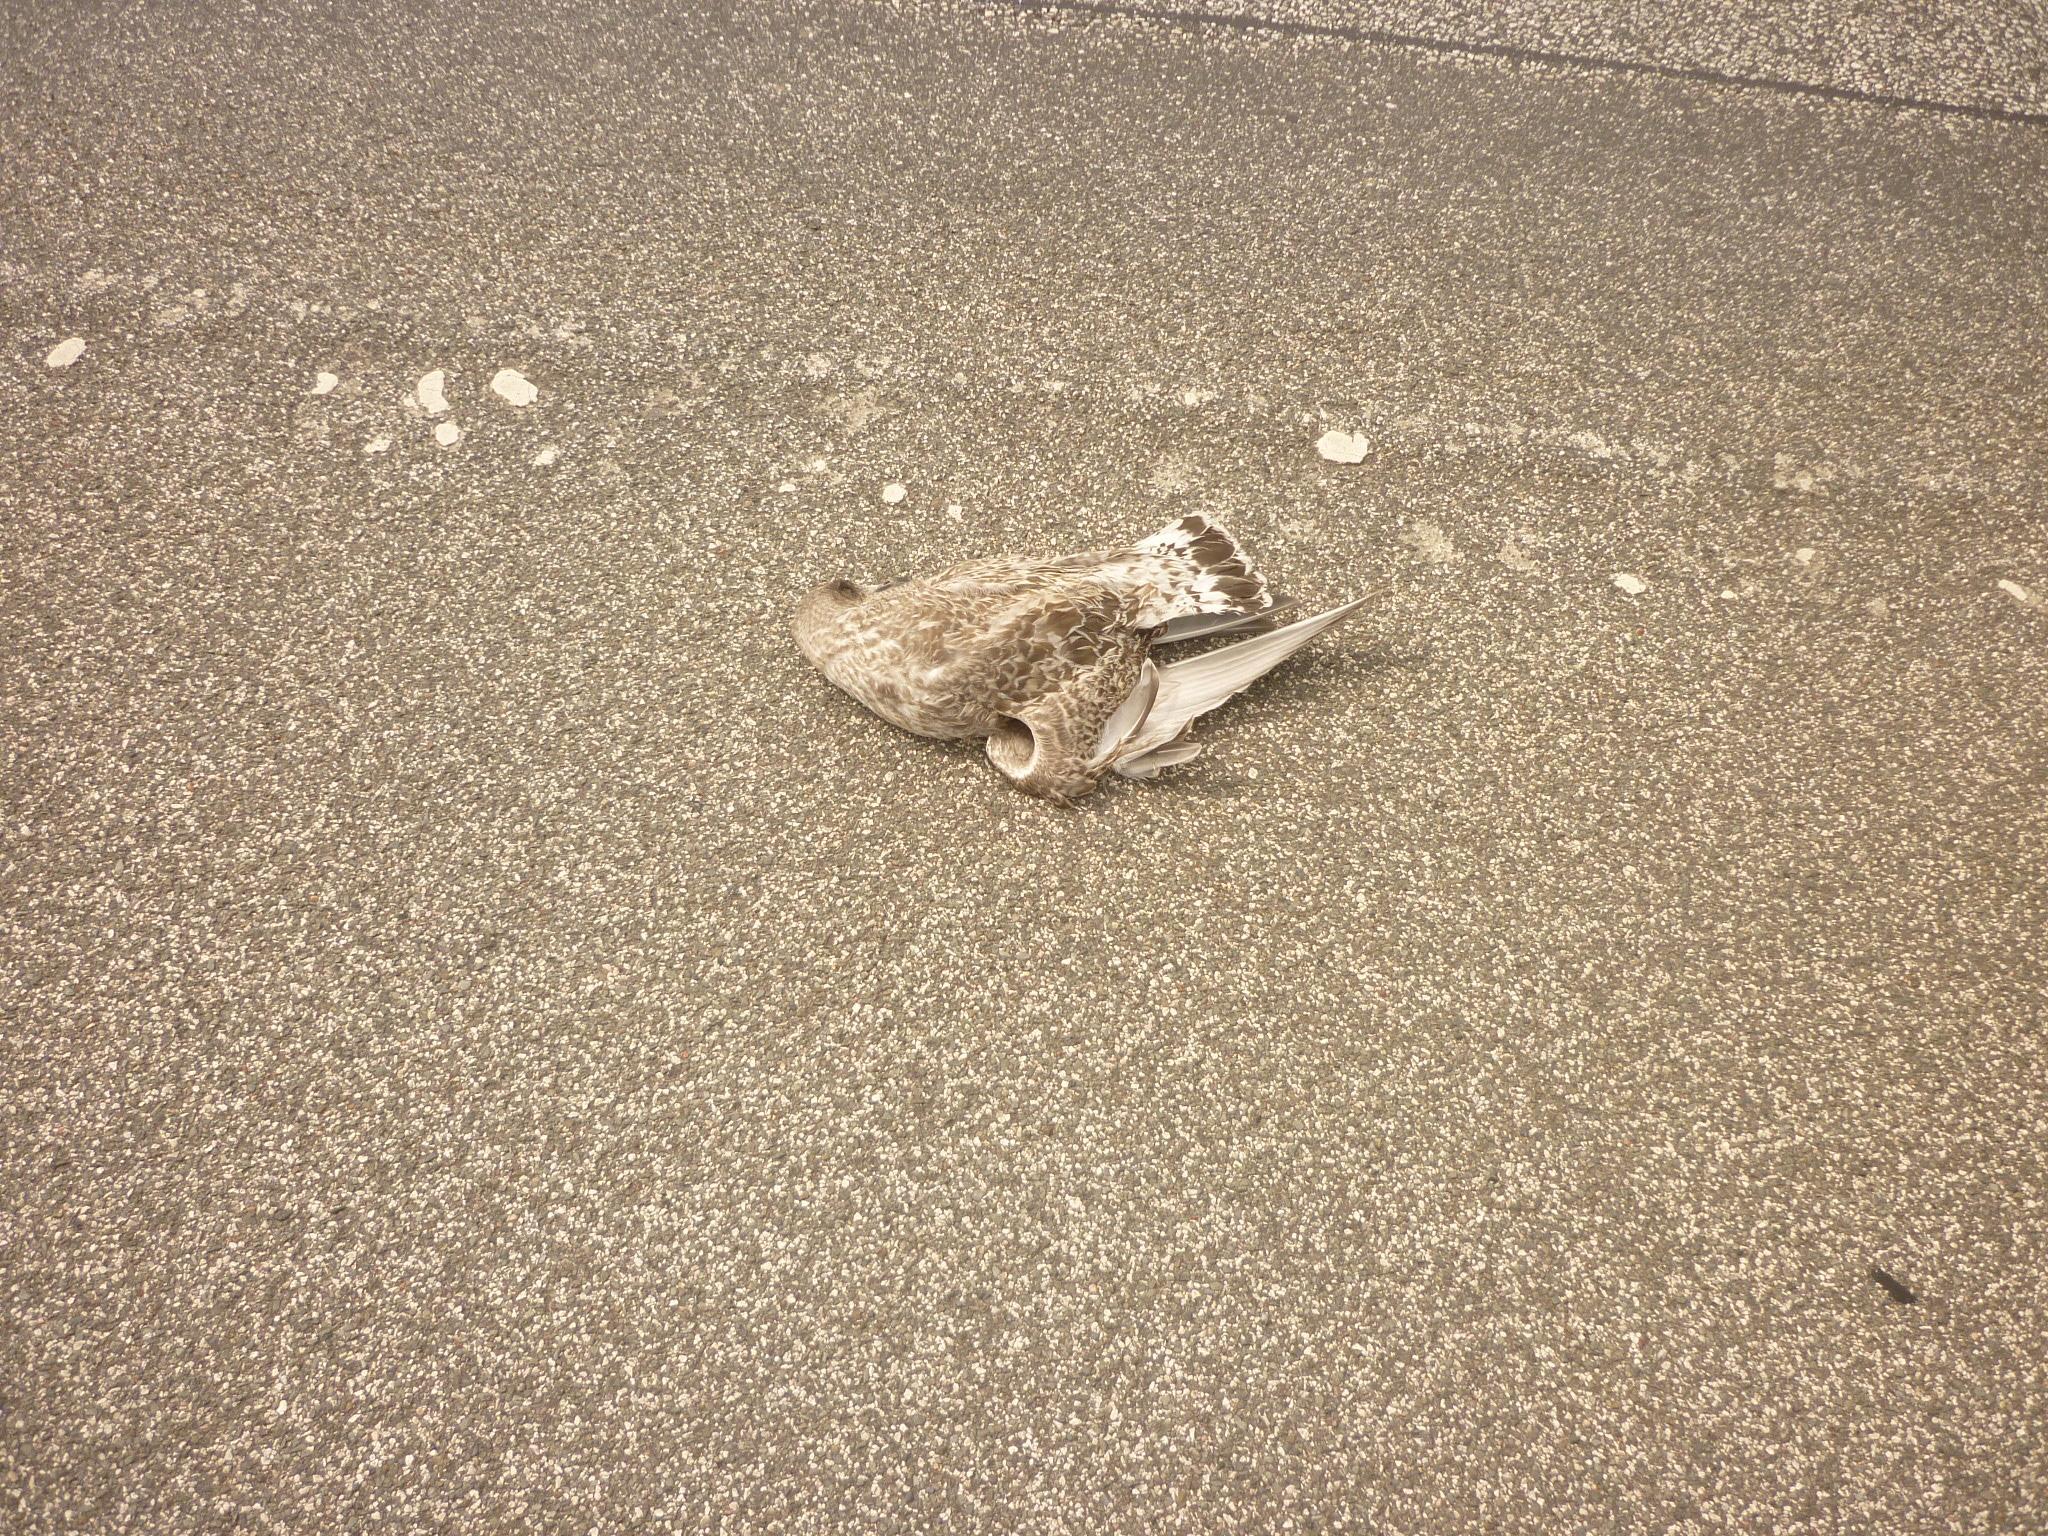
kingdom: Animalia
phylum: Chordata
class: Aves
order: Charadriiformes
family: Laridae
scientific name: Laridae
